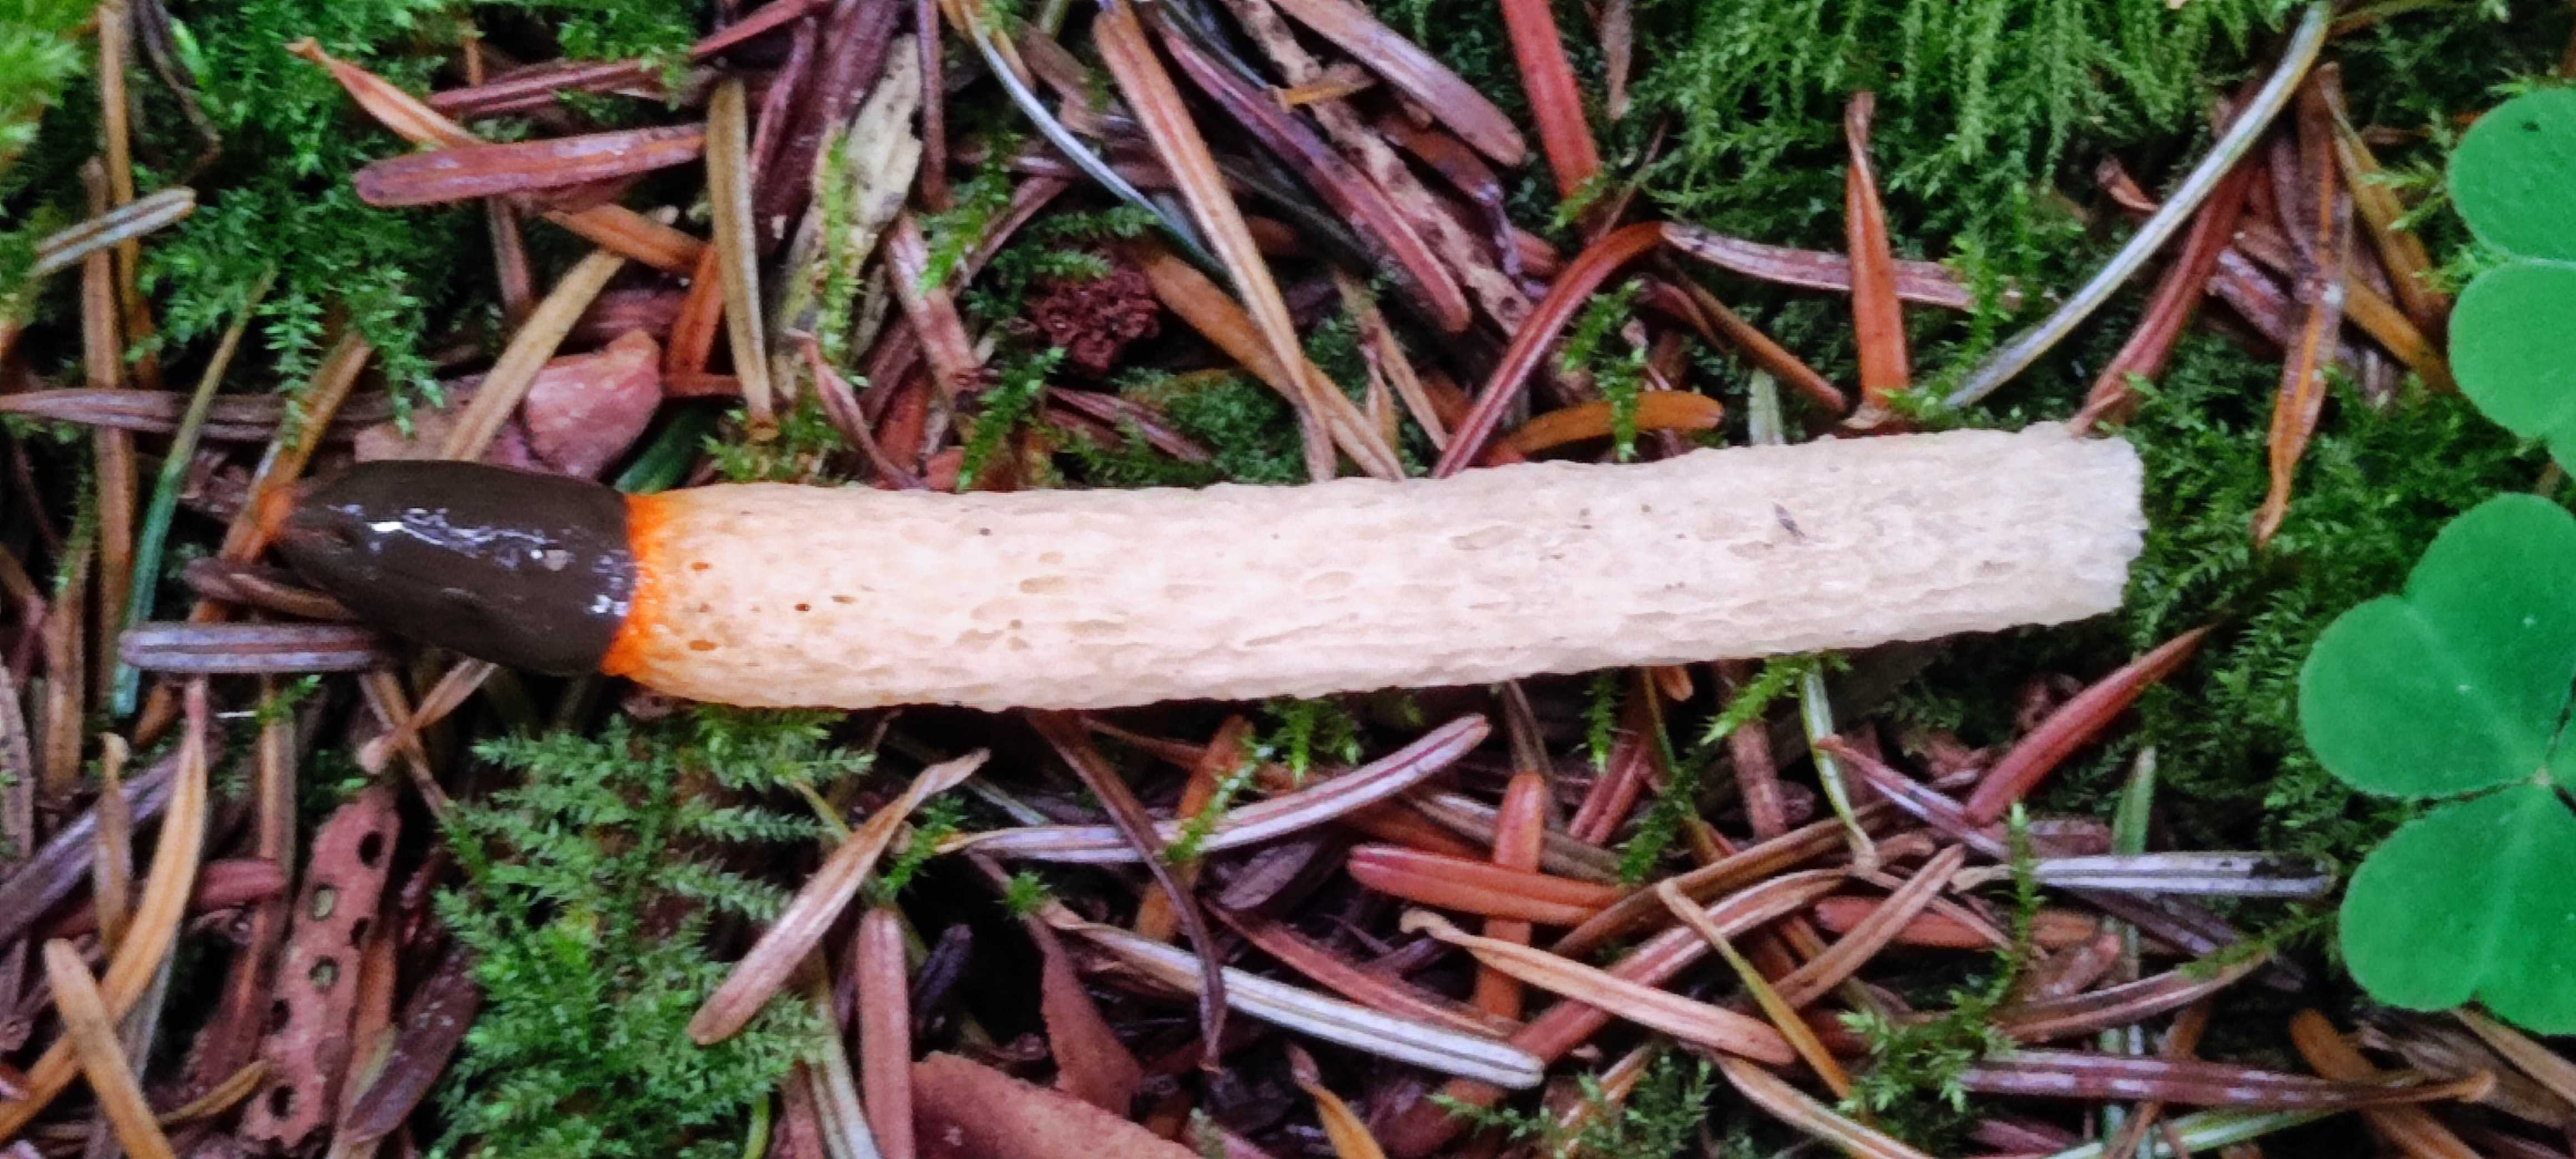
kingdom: Fungi
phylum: Basidiomycota
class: Agaricomycetes
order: Phallales
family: Phallaceae
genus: Mutinus
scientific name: Mutinus caninus
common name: hunde-stinksvamp
